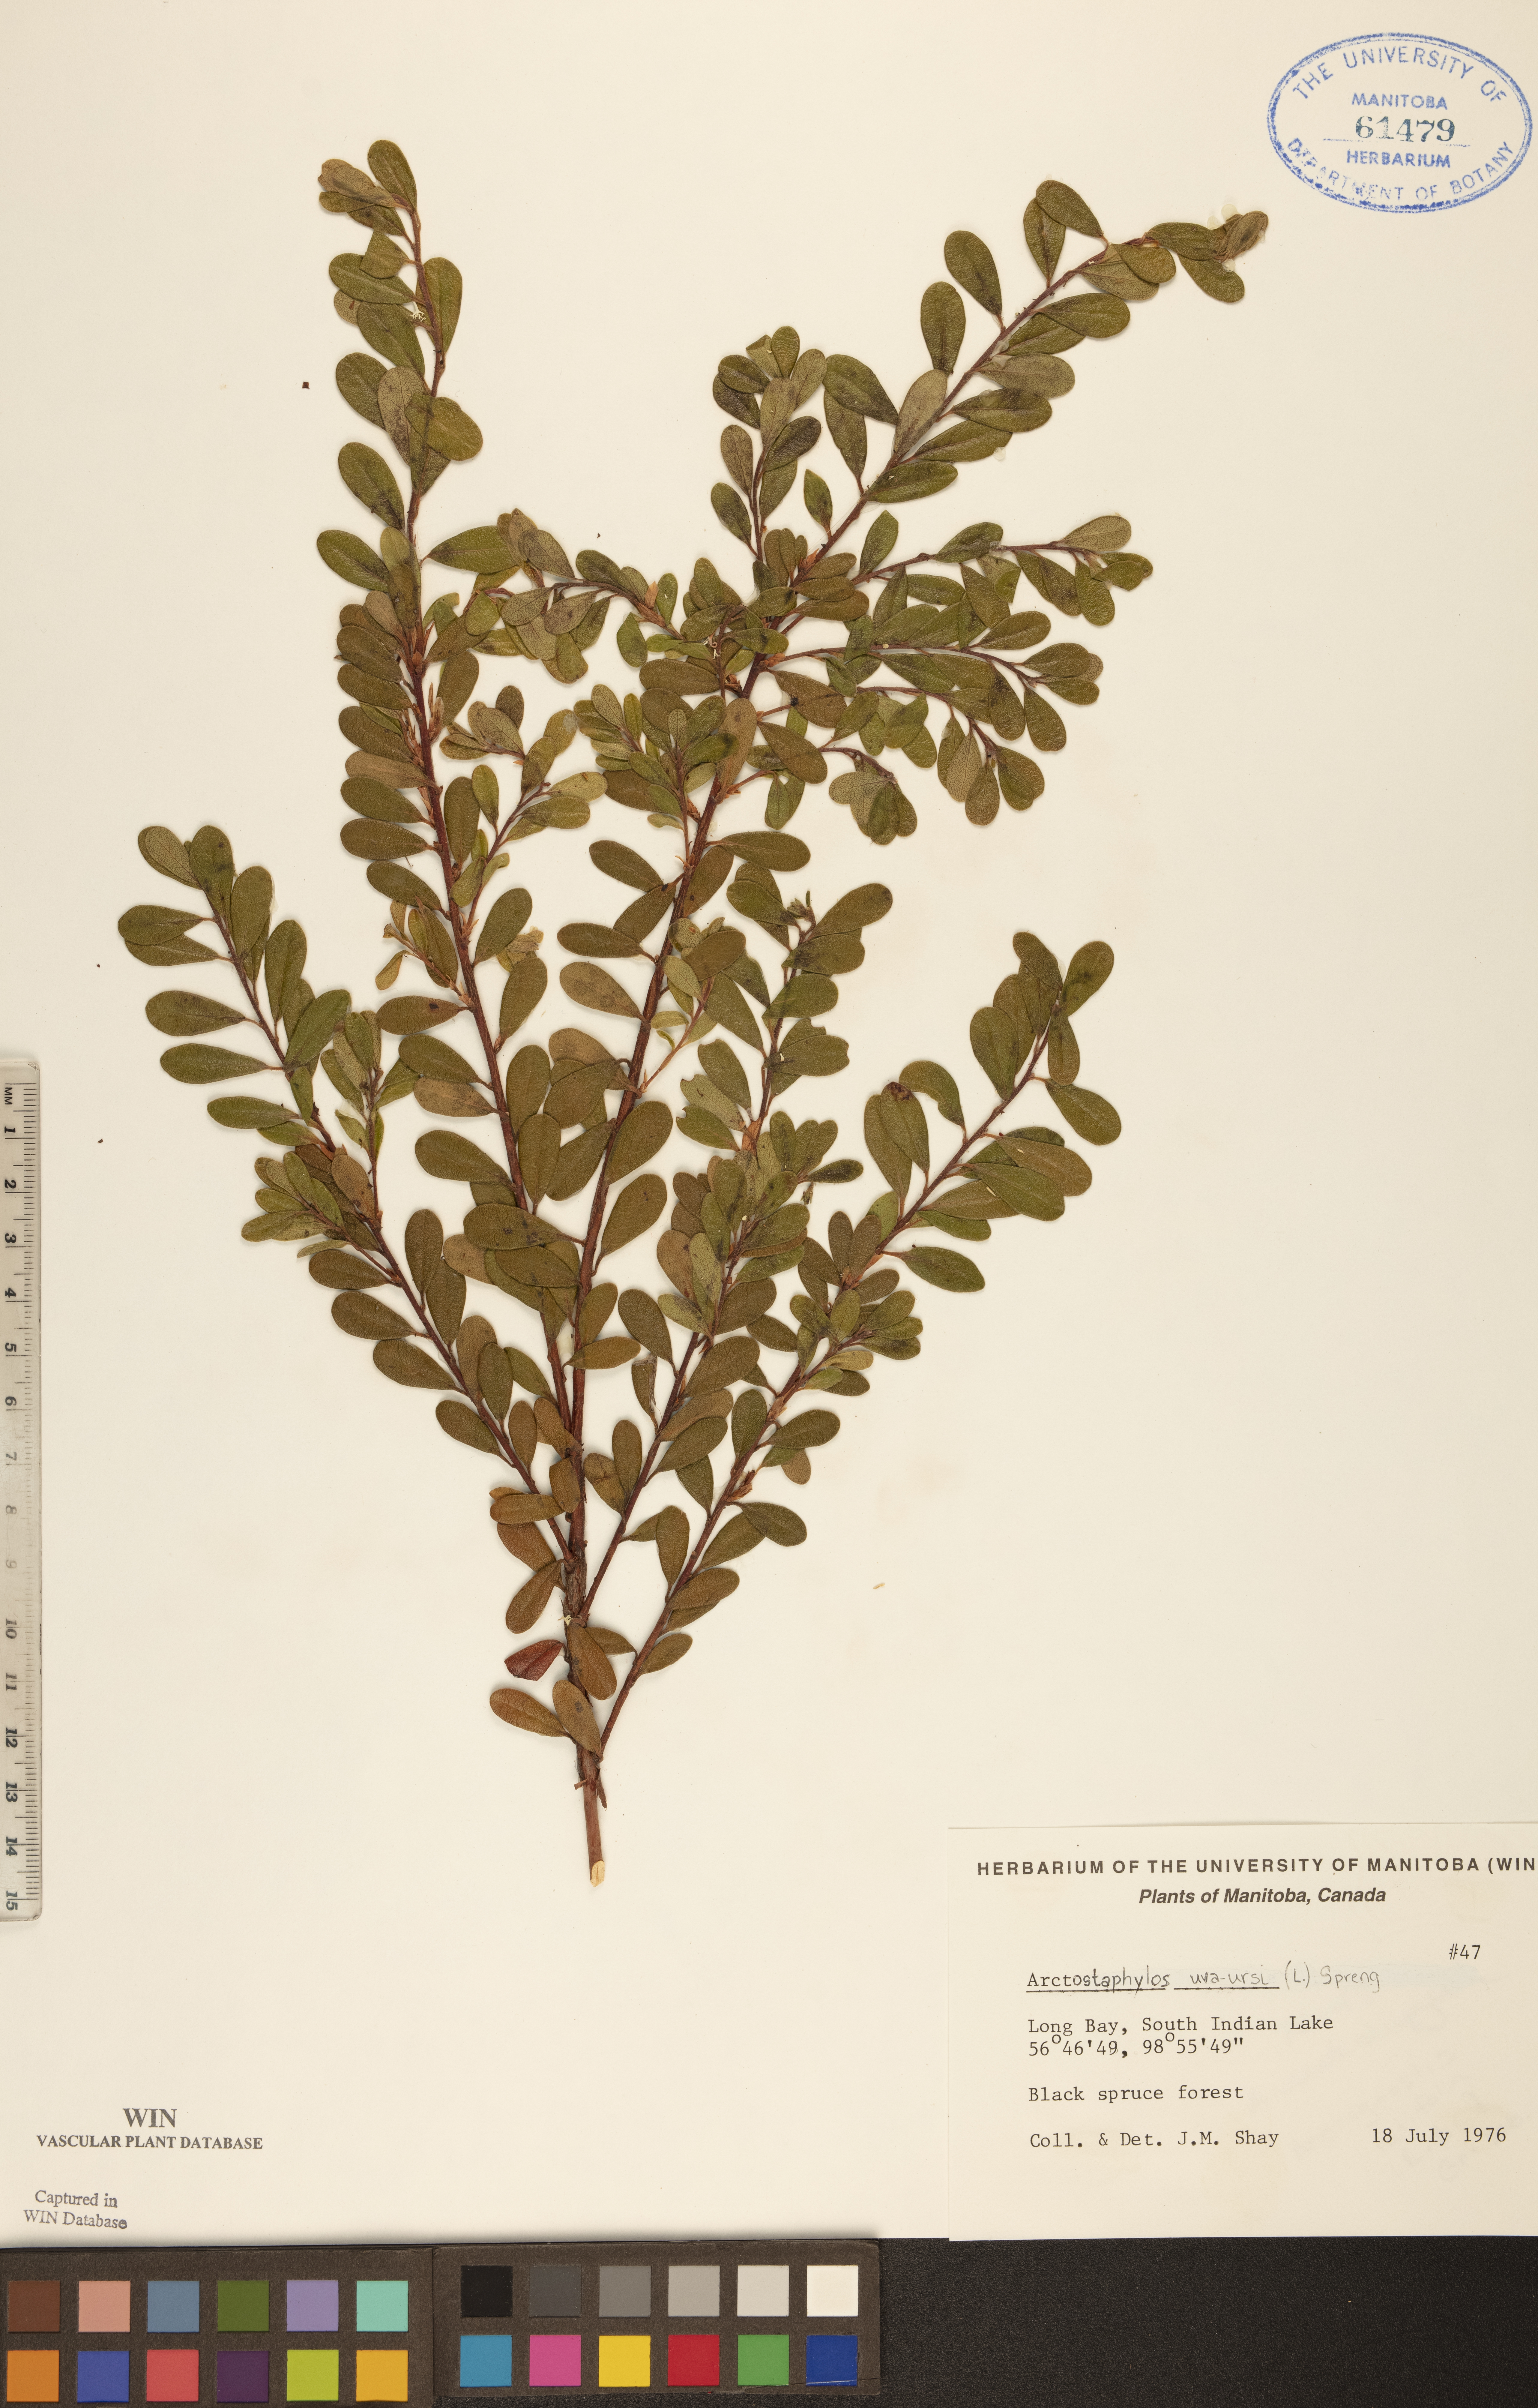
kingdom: Plantae
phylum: Tracheophyta
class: Magnoliopsida
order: Ericales
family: Ericaceae
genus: Arctostaphylos
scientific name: Arctostaphylos uva-ursi
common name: Bearberry
